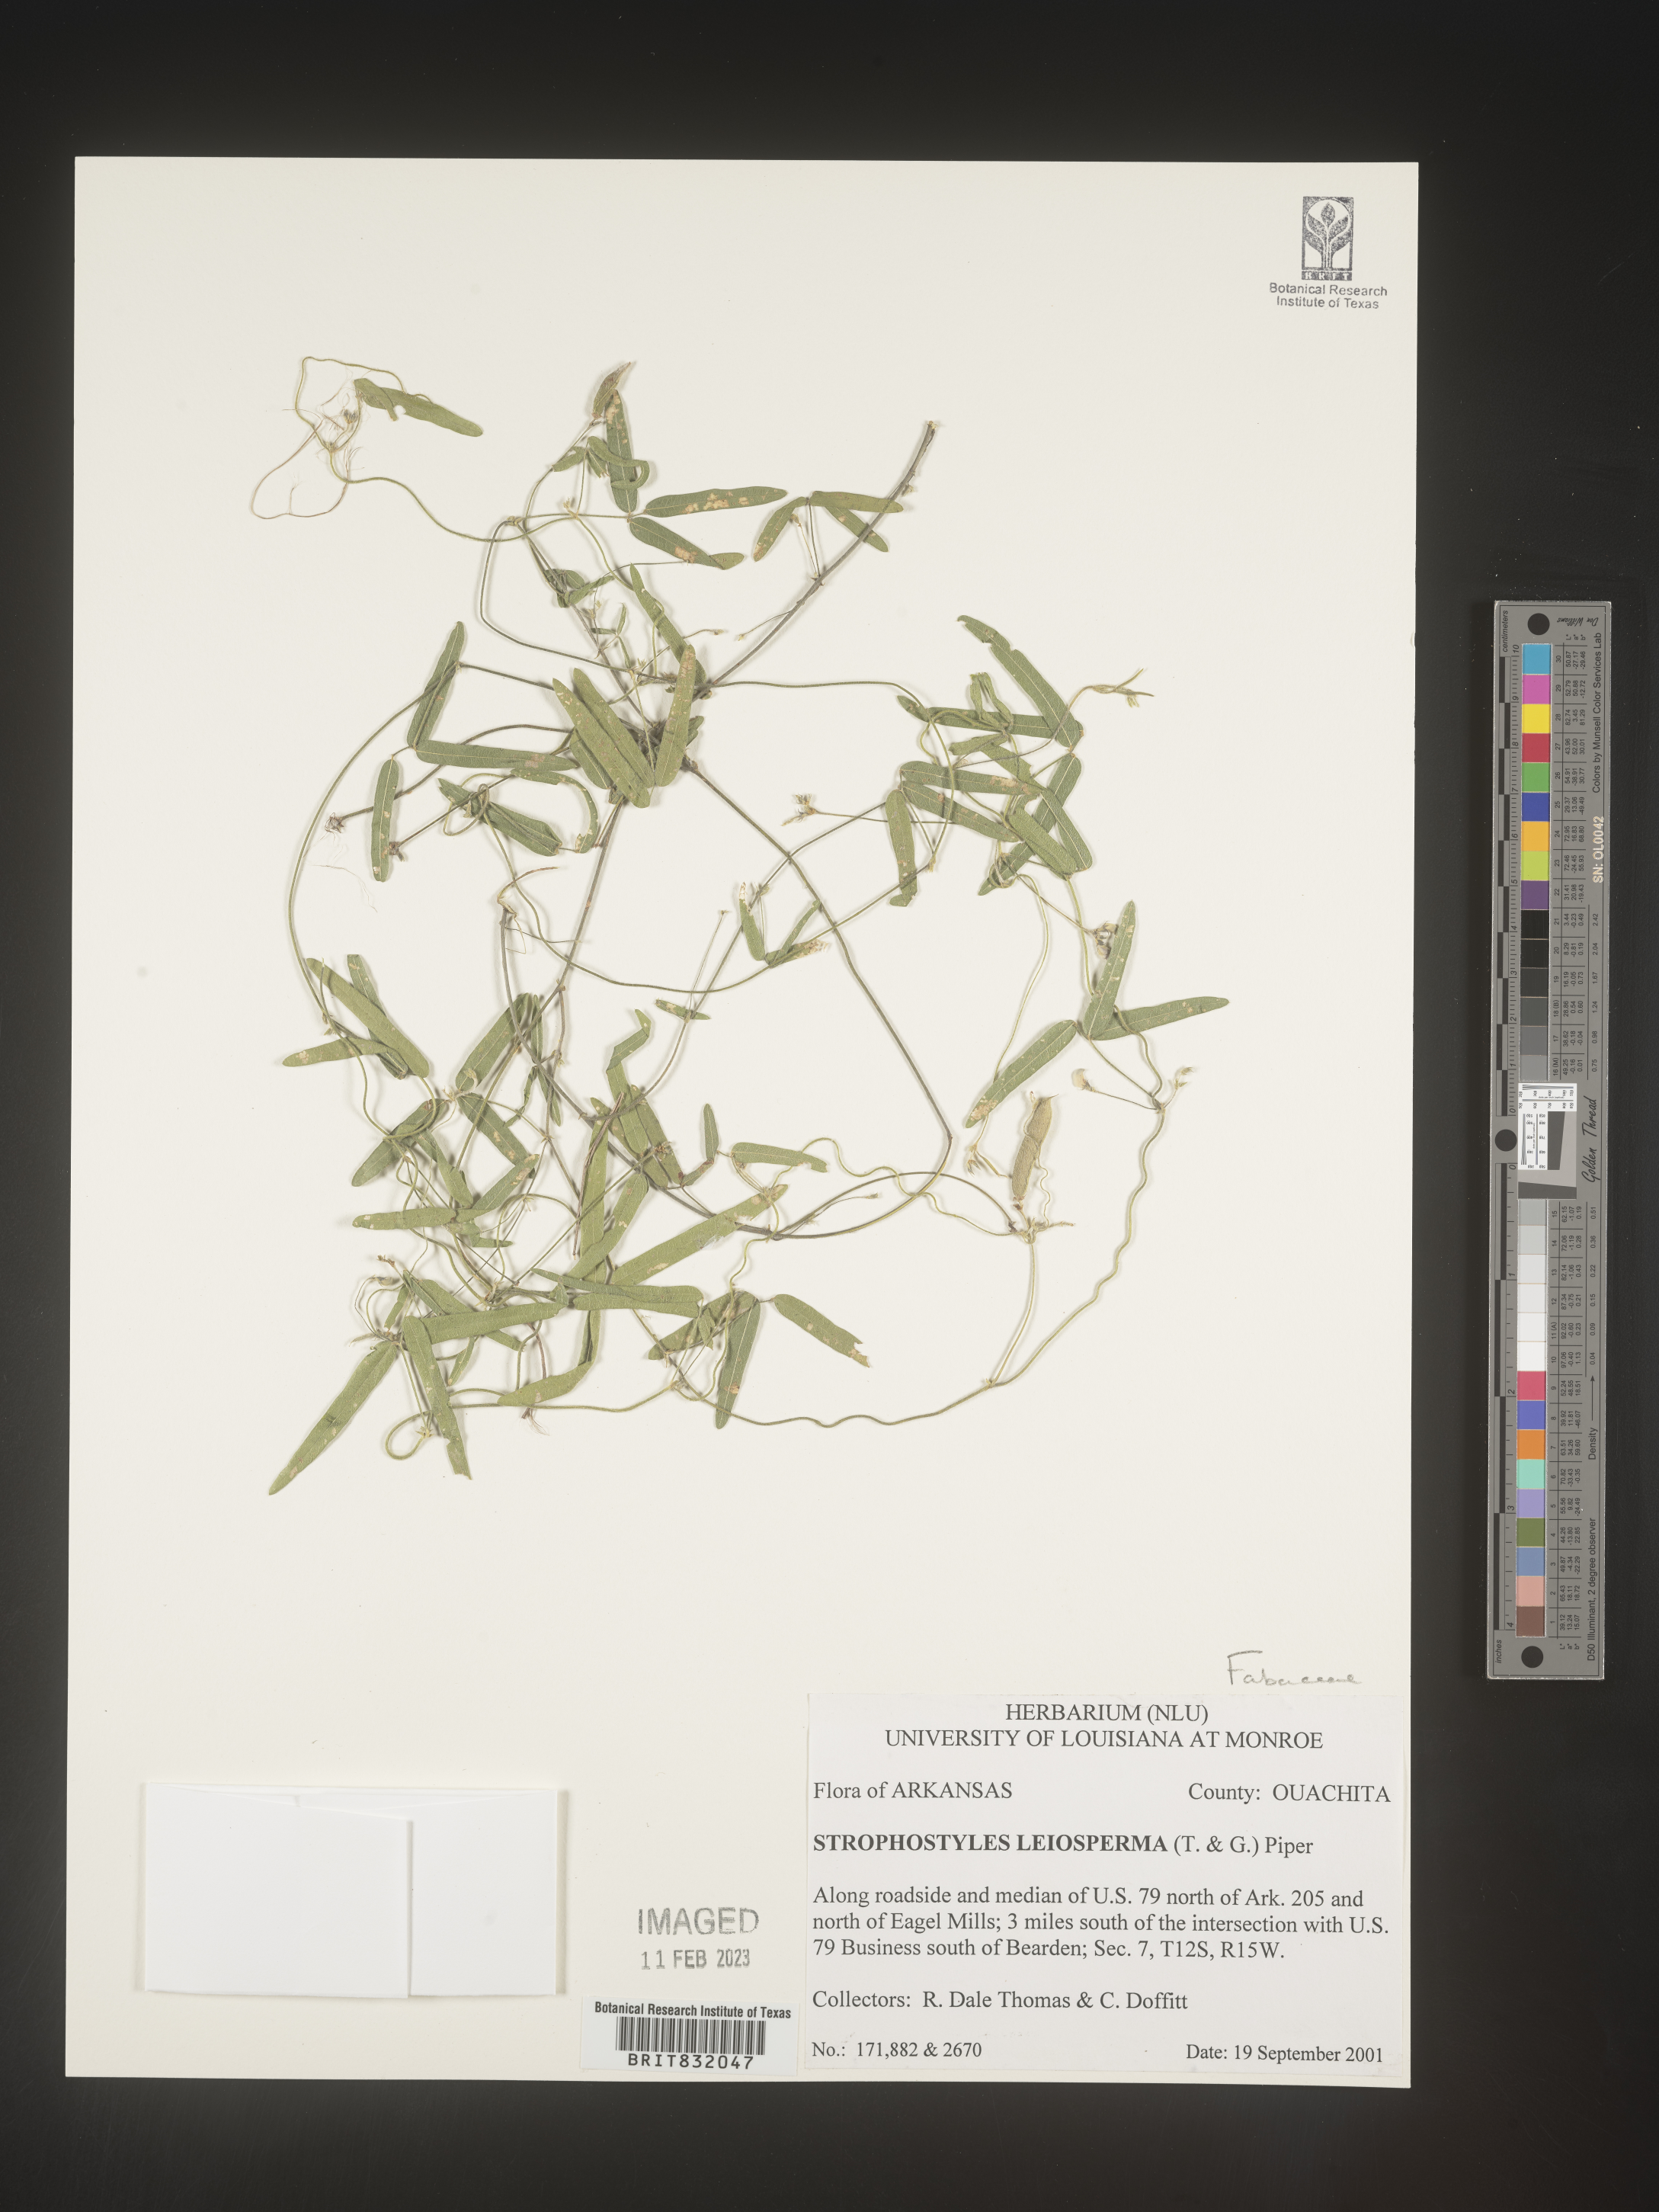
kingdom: Plantae
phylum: Tracheophyta
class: Magnoliopsida
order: Fabales
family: Fabaceae
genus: Strophostyles
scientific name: Strophostyles leiosperma
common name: Smooth-seed wild bean
